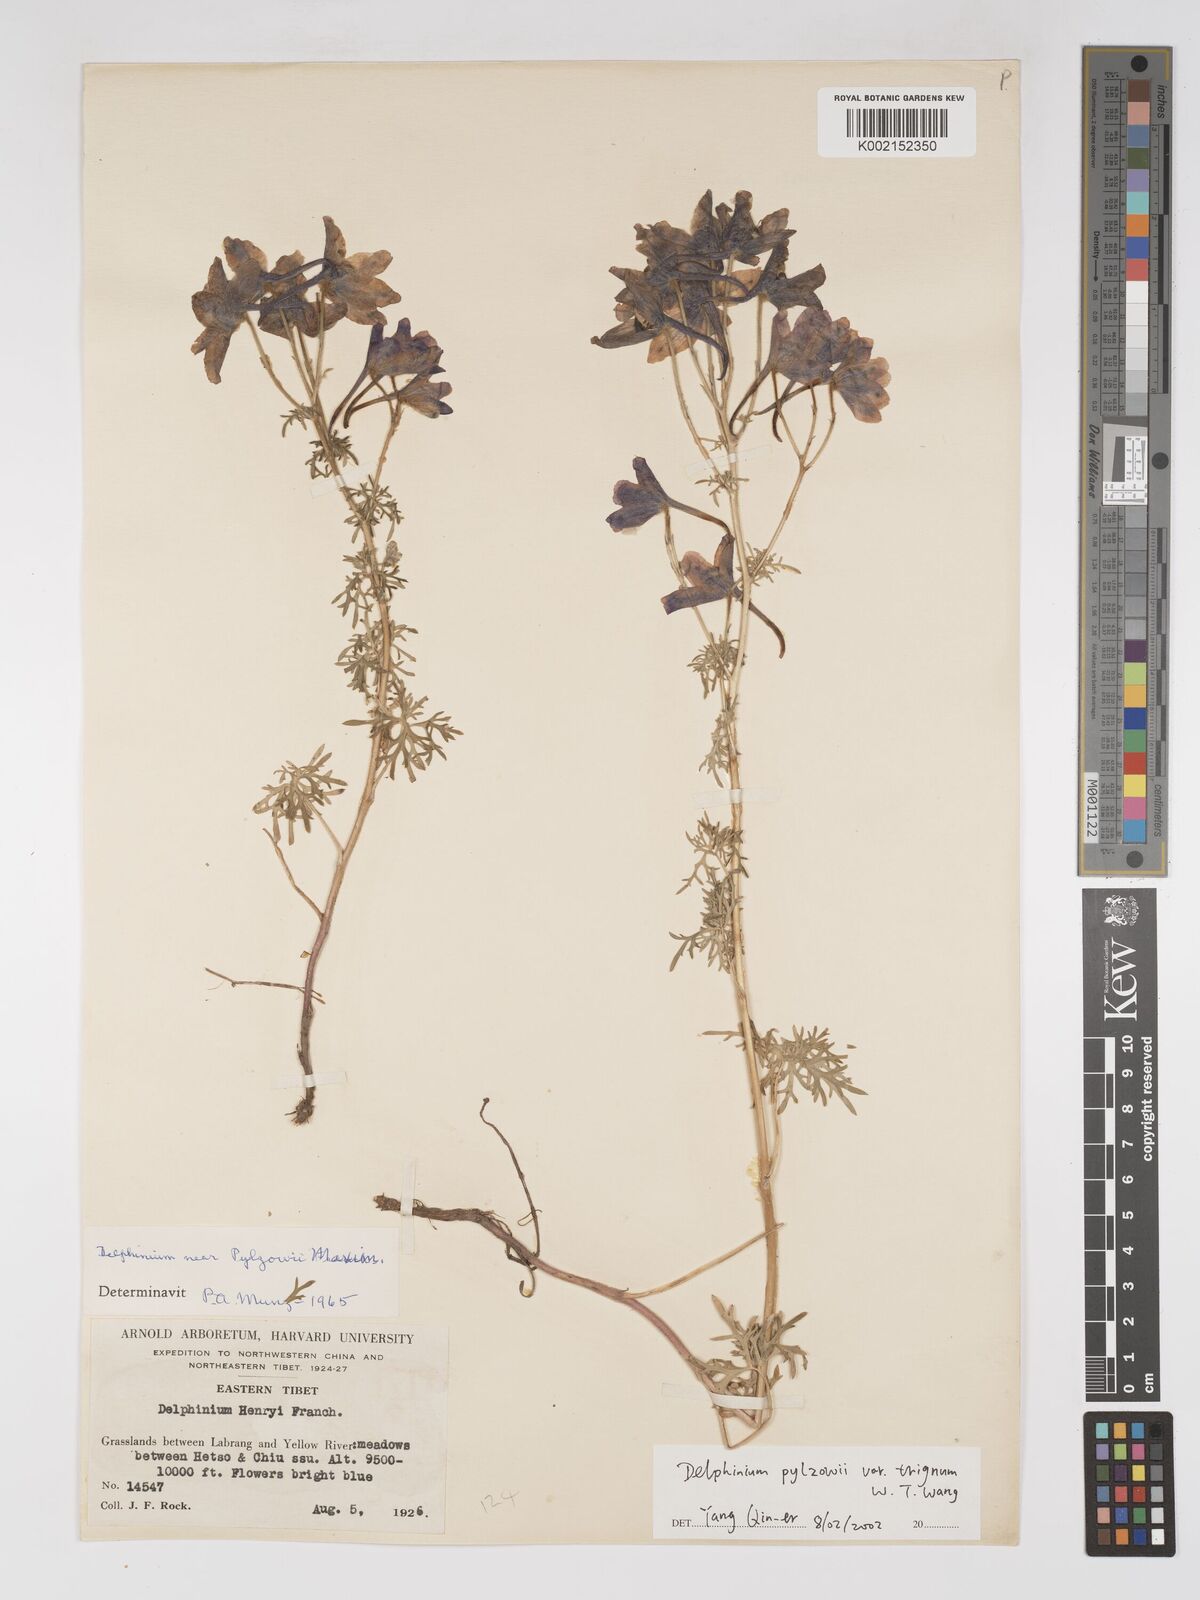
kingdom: Plantae
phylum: Tracheophyta
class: Magnoliopsida
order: Ranunculales
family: Ranunculaceae
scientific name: Ranunculaceae
